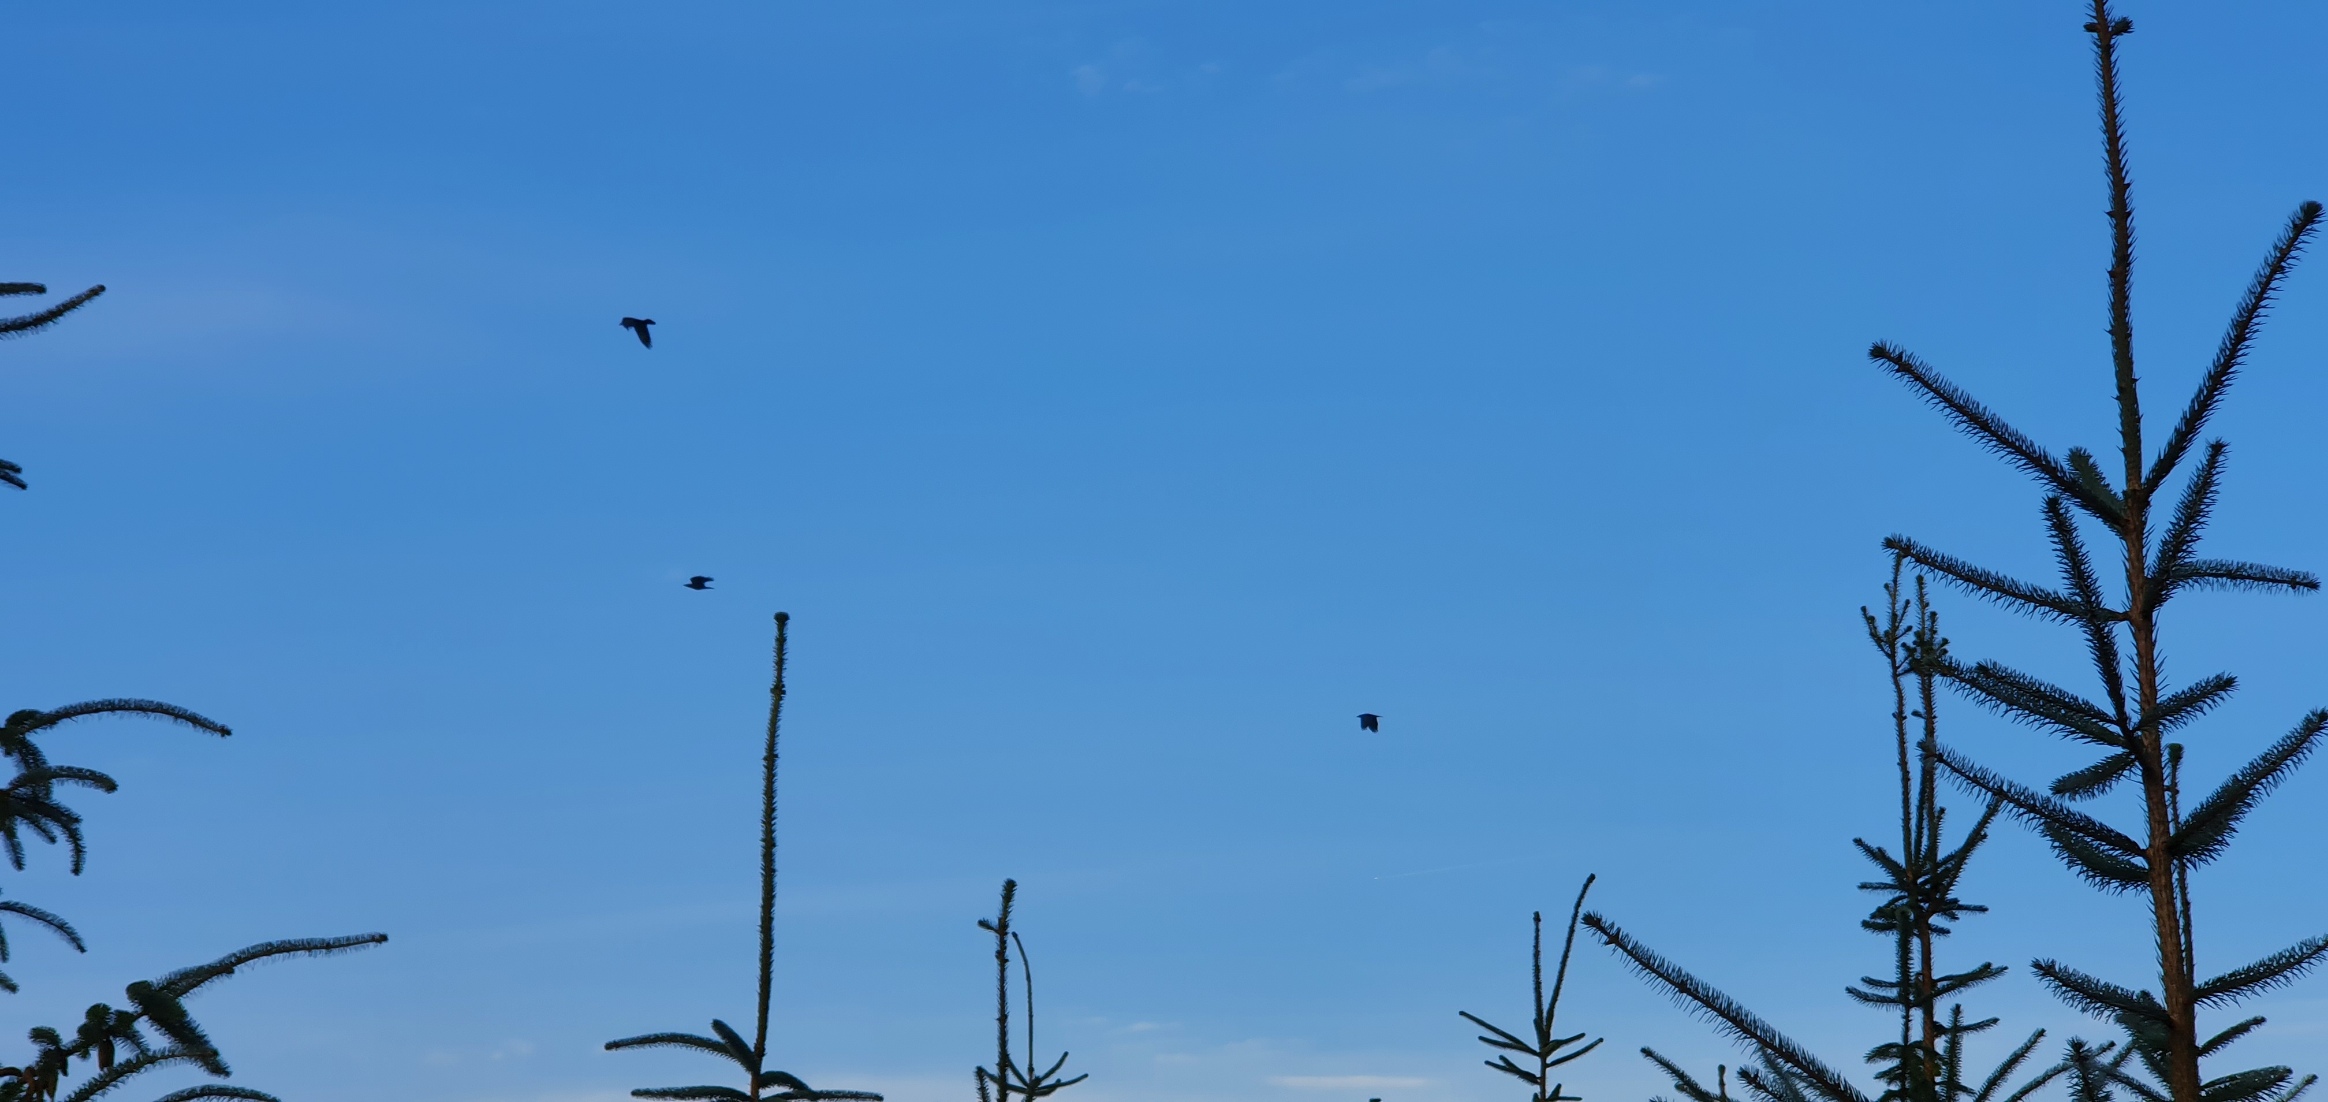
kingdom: Animalia
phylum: Chordata
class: Aves
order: Passeriformes
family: Corvidae
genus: Corvus
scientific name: Corvus corax
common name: Ravn
